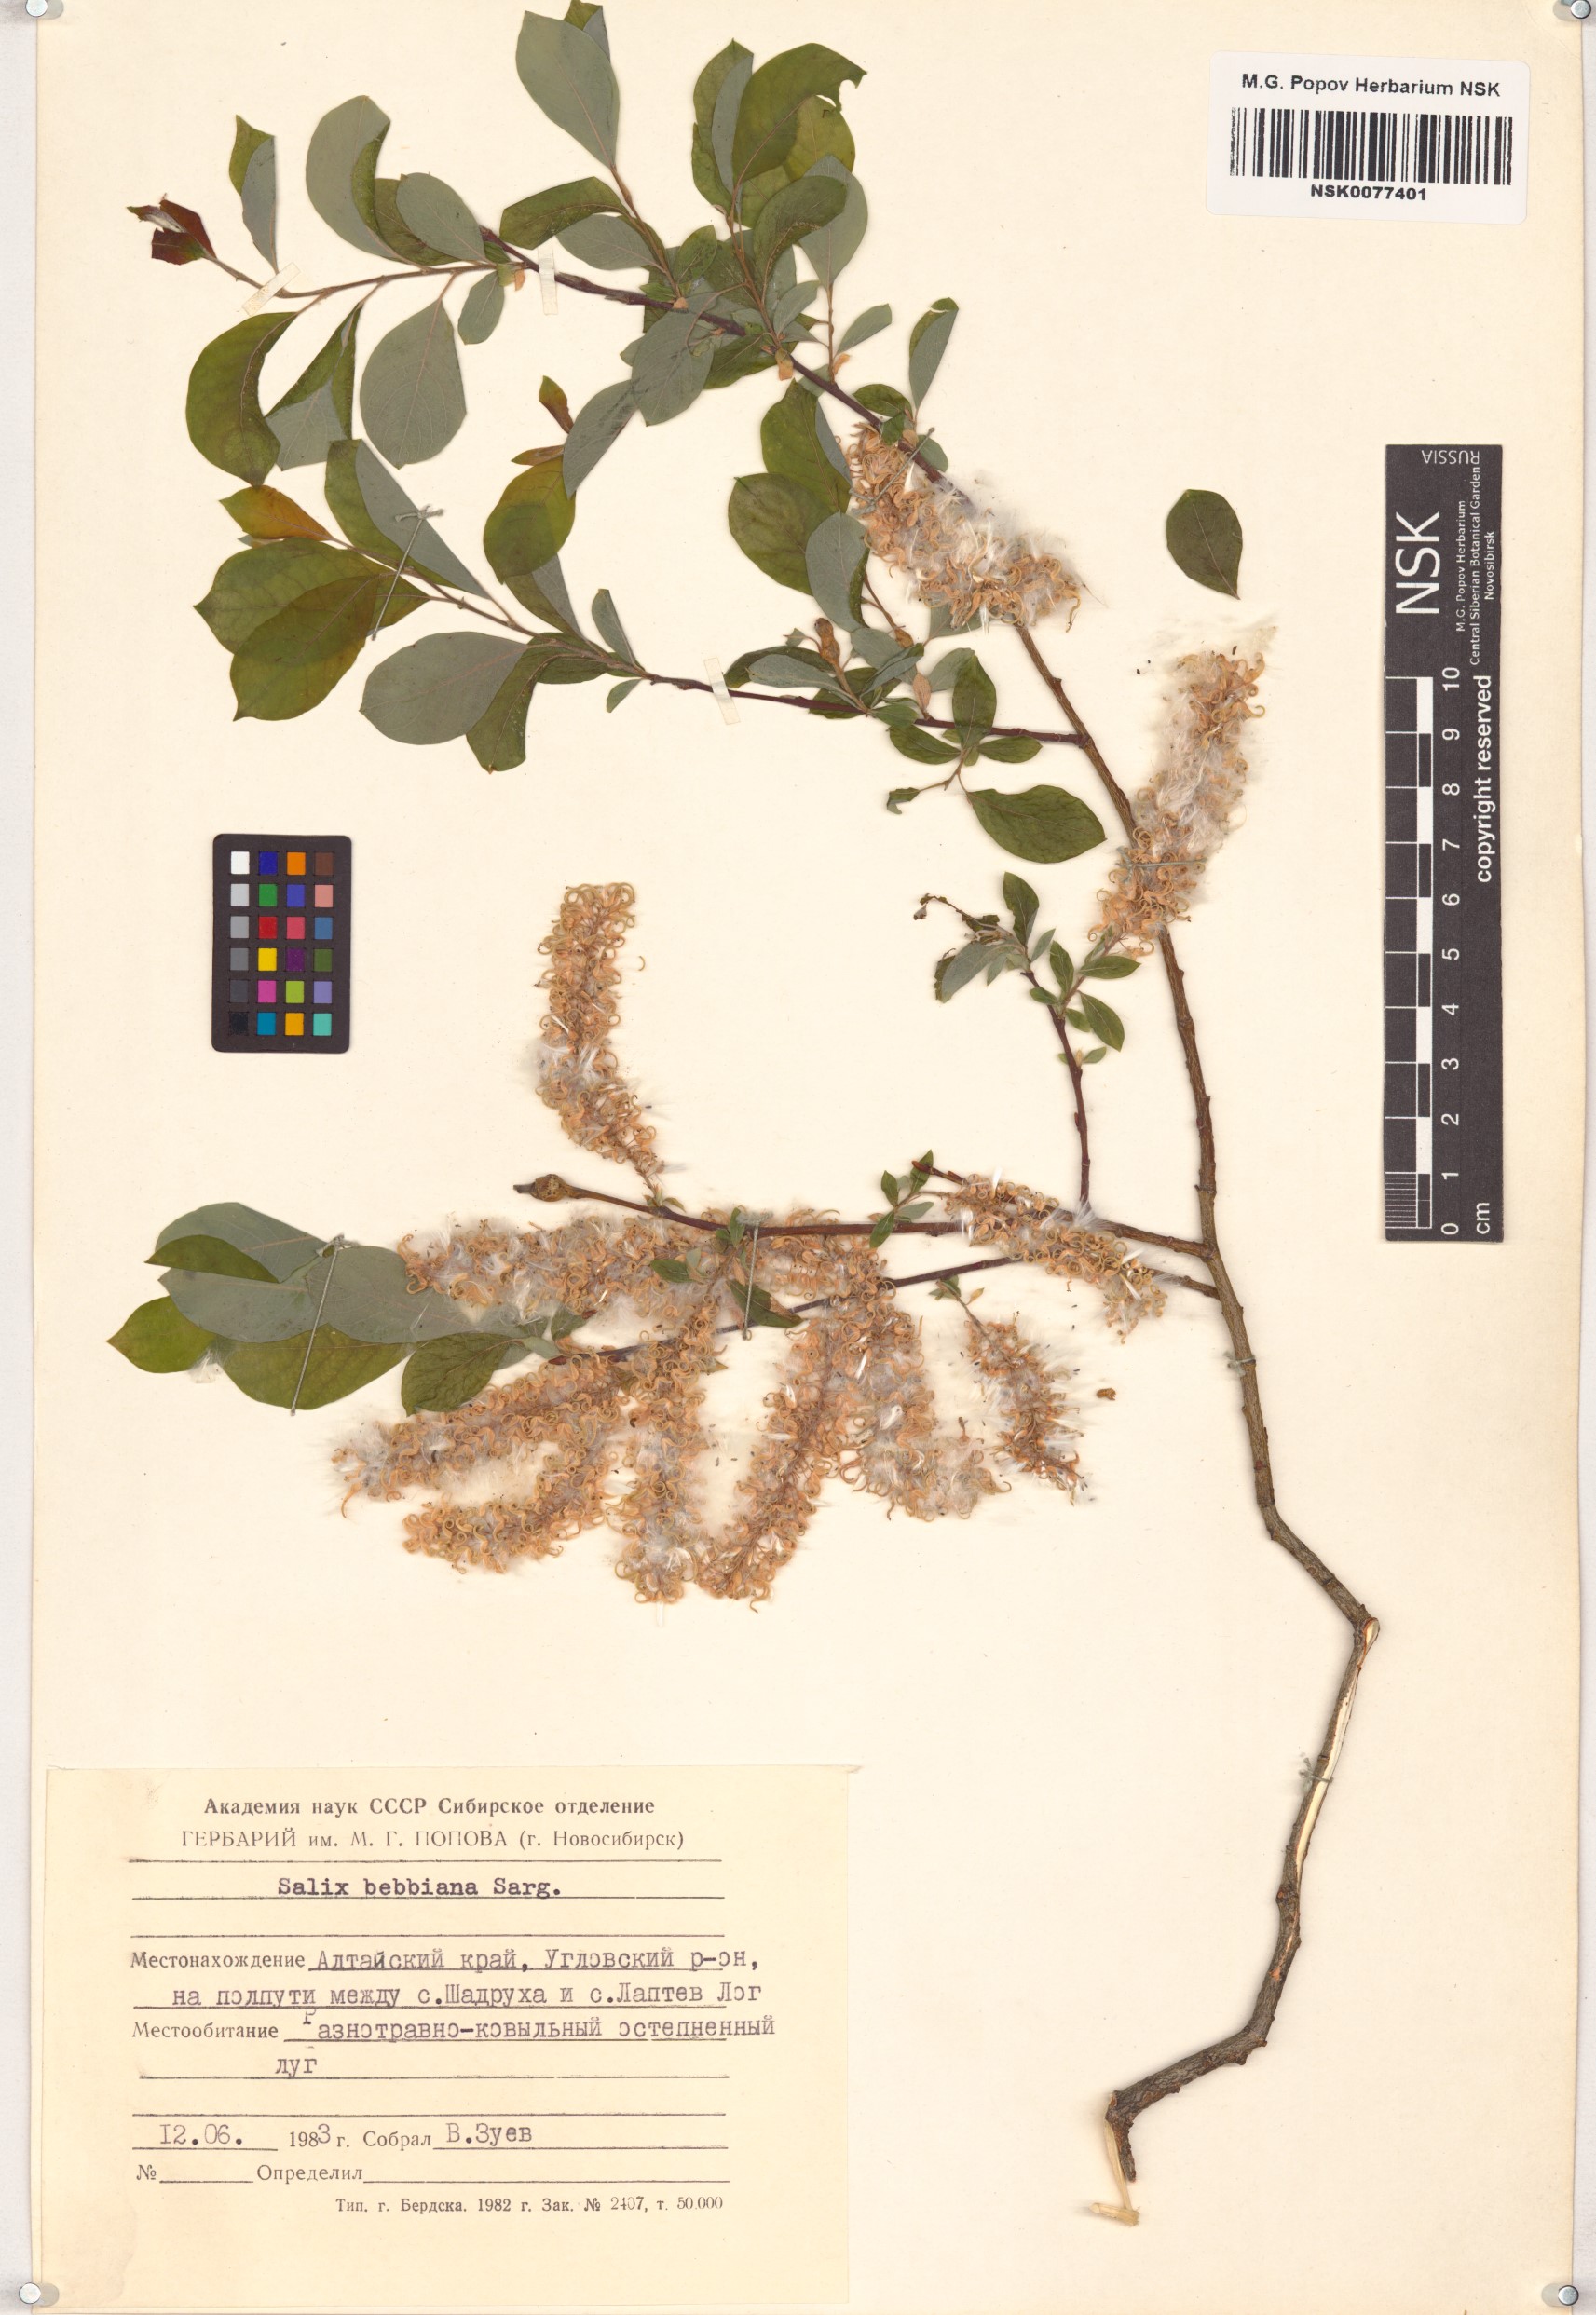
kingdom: Plantae
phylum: Tracheophyta
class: Magnoliopsida
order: Malpighiales
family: Salicaceae
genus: Salix
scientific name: Salix bebbiana
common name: Bebb's willow
